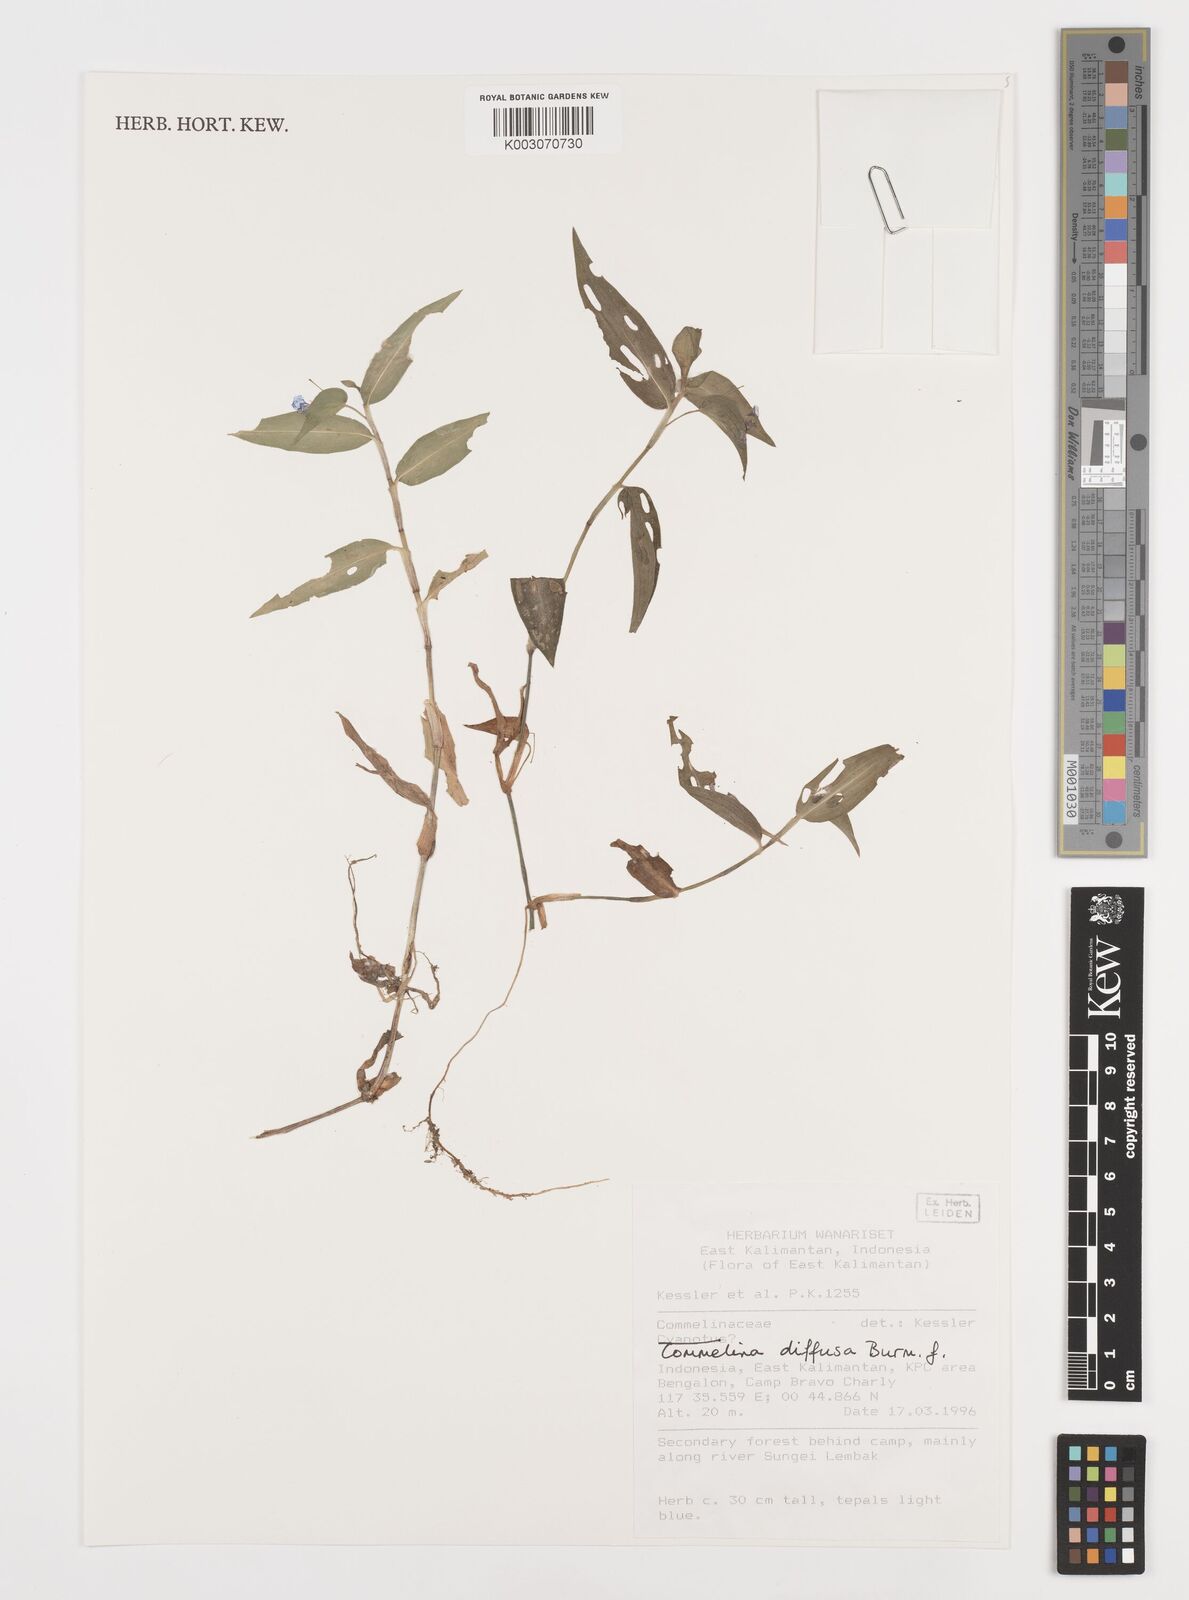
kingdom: Plantae
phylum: Tracheophyta
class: Liliopsida
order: Commelinales
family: Commelinaceae
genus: Commelina
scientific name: Commelina clavata
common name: Willow leaved dayflower
